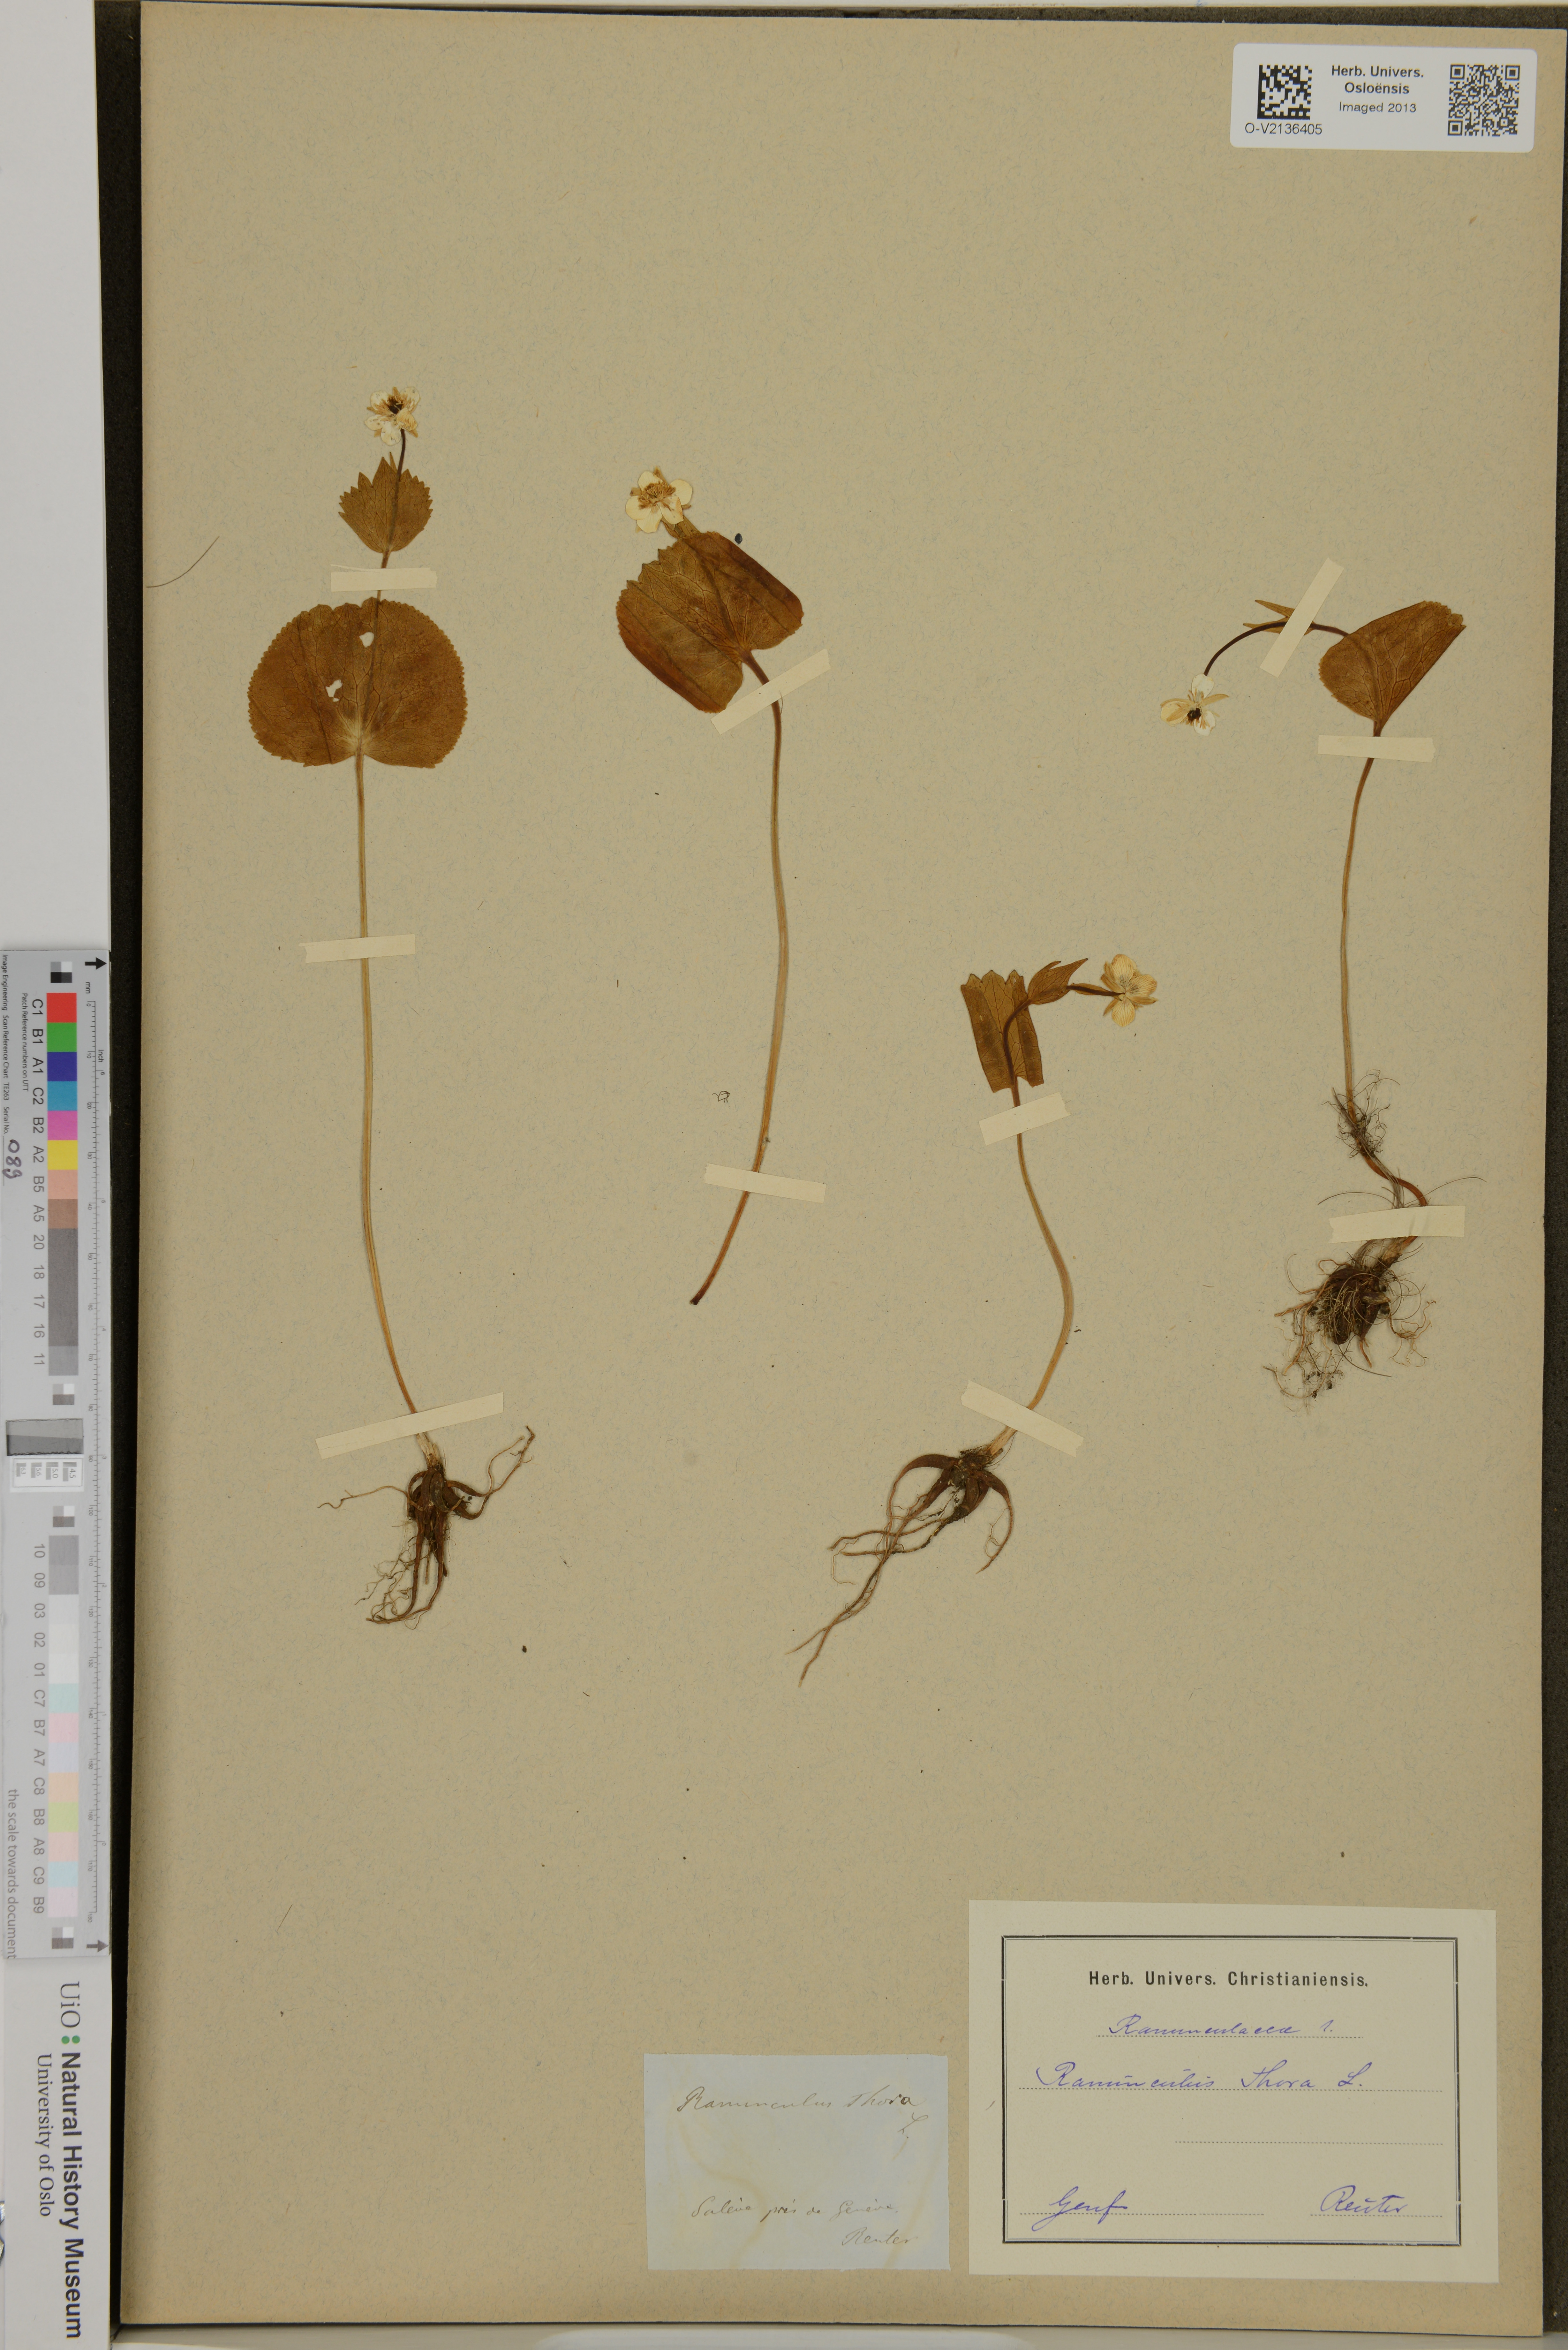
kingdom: Plantae
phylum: Tracheophyta
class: Magnoliopsida
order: Ranunculales
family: Ranunculaceae
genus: Ranunculus
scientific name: Ranunculus thora
